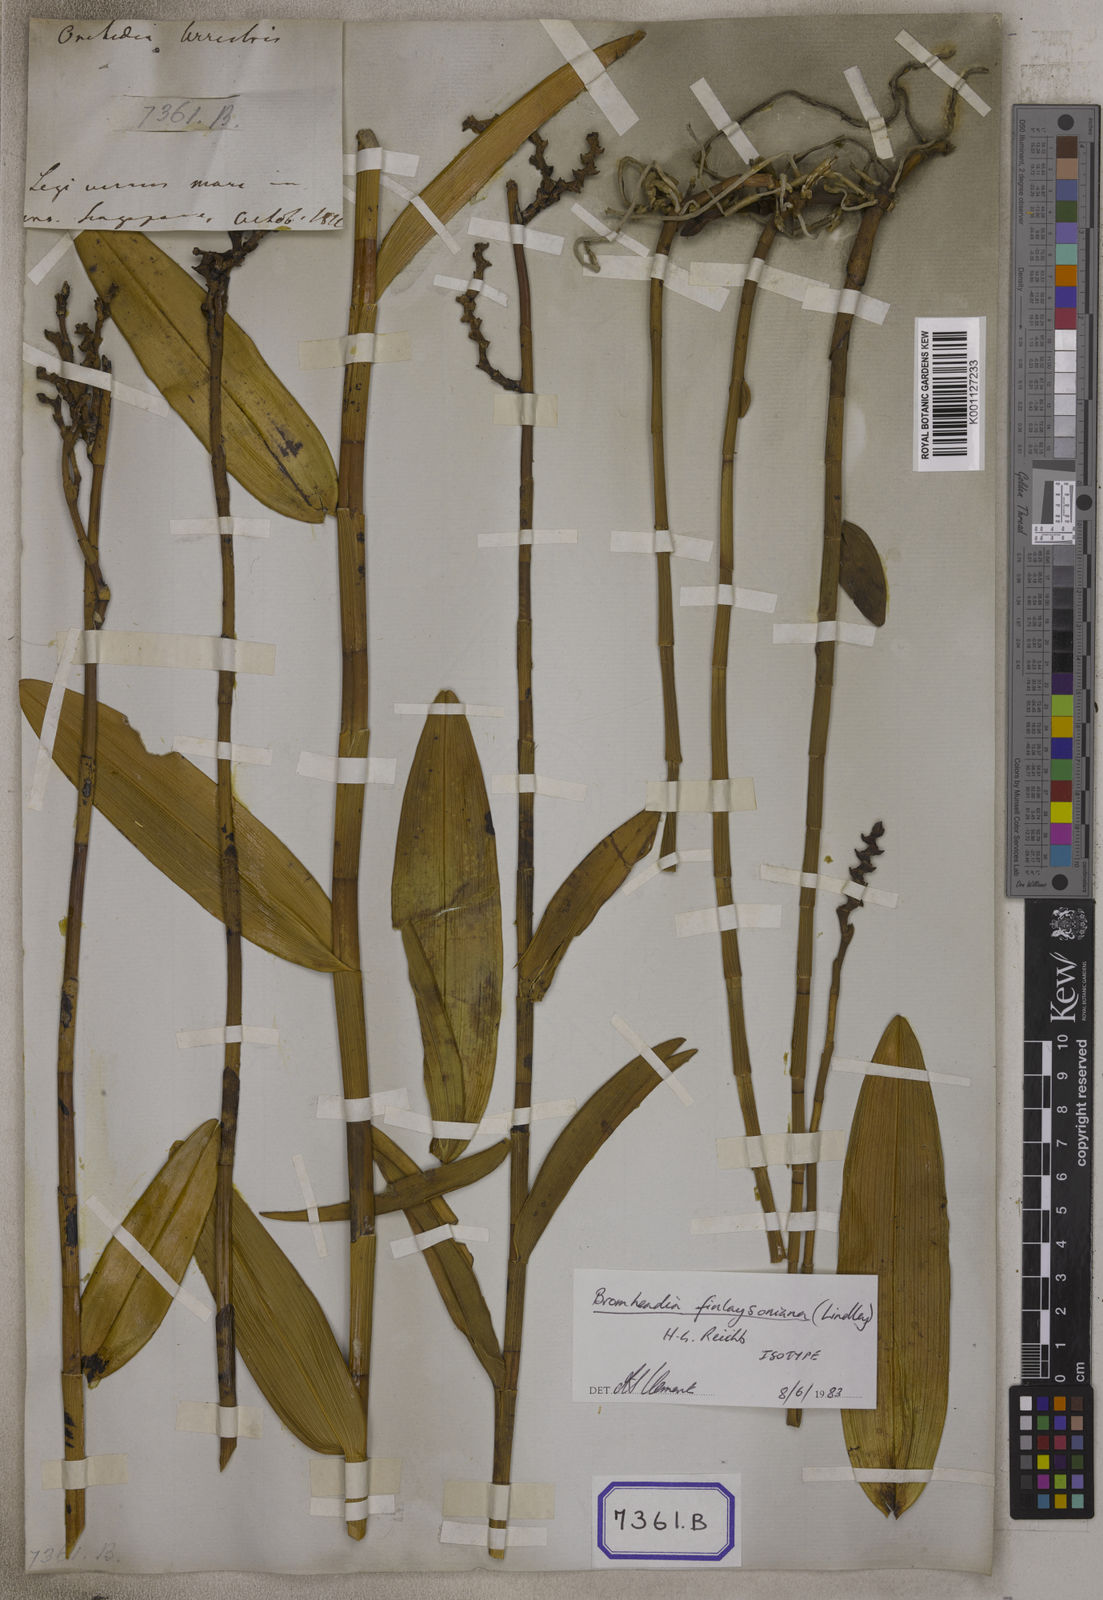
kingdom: Plantae
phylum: Tracheophyta
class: Liliopsida
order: Asparagales
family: Orchidaceae
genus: Grammatophyllum
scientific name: Grammatophyllum
